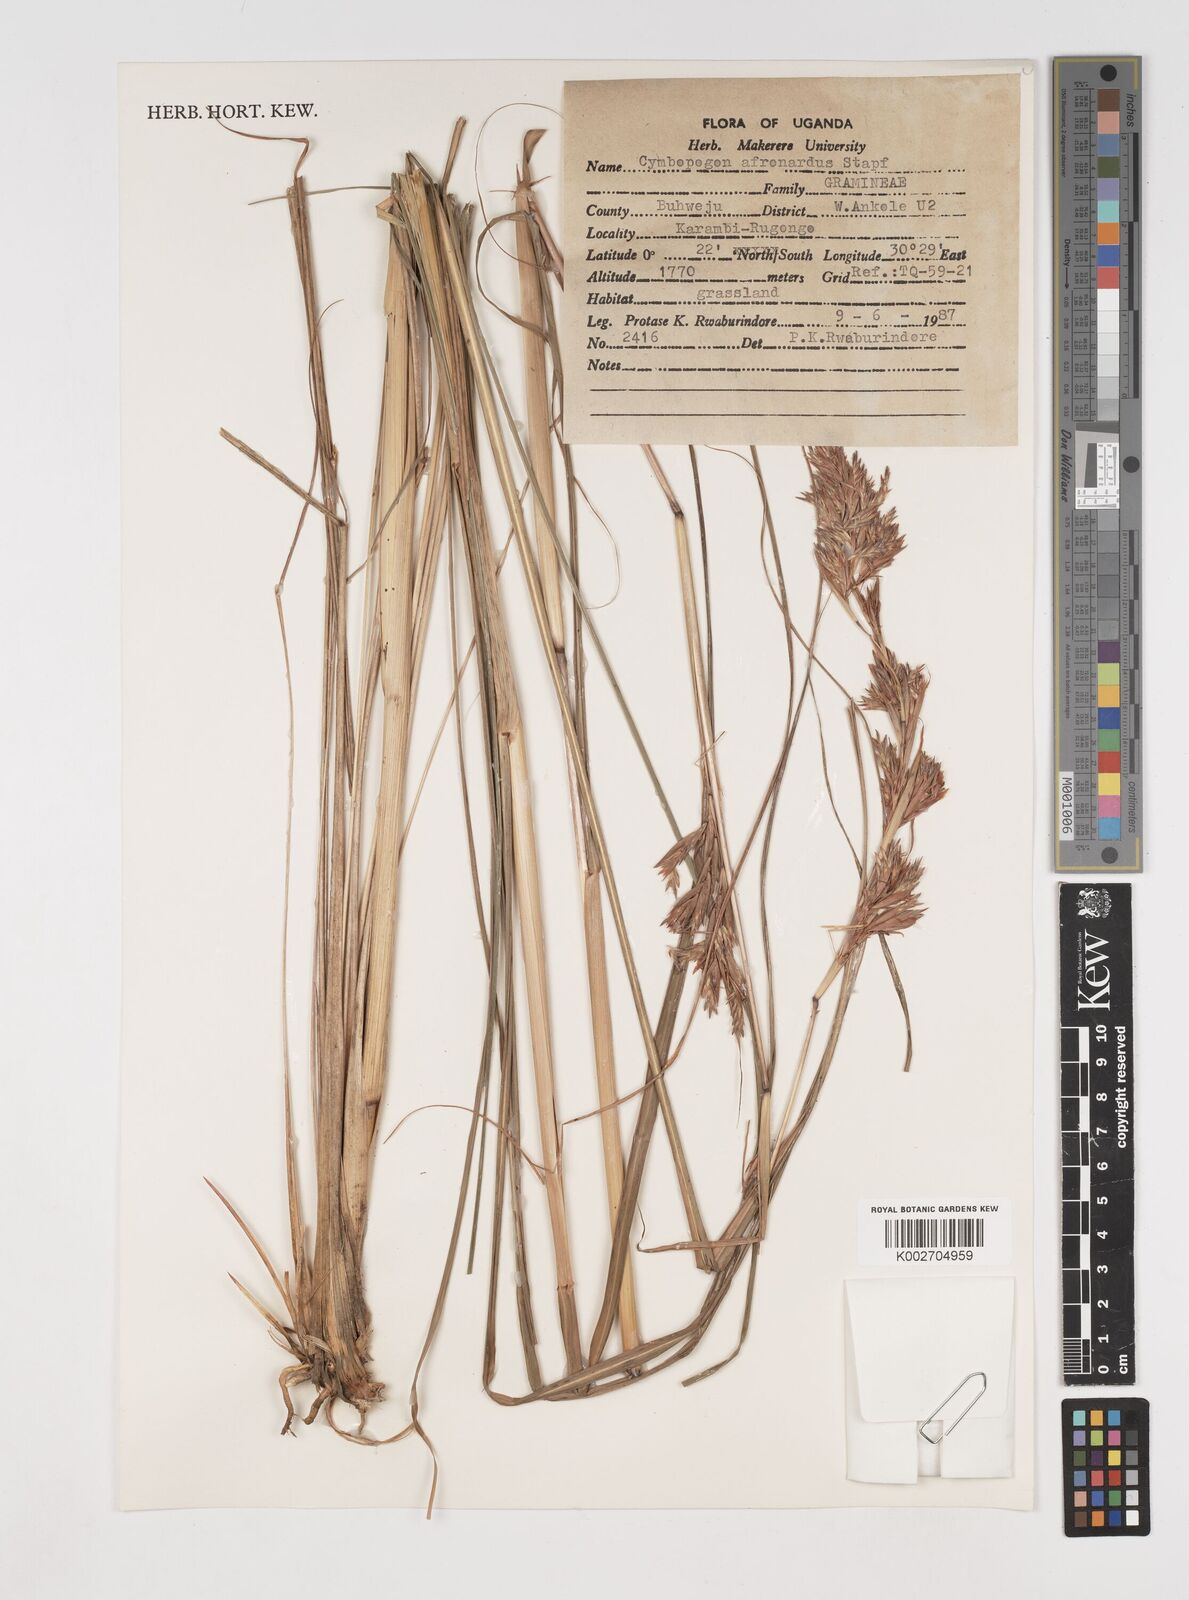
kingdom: Plantae
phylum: Tracheophyta
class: Liliopsida
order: Poales
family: Poaceae
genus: Cymbopogon
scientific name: Cymbopogon nardus
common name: Giant turpentine grass
